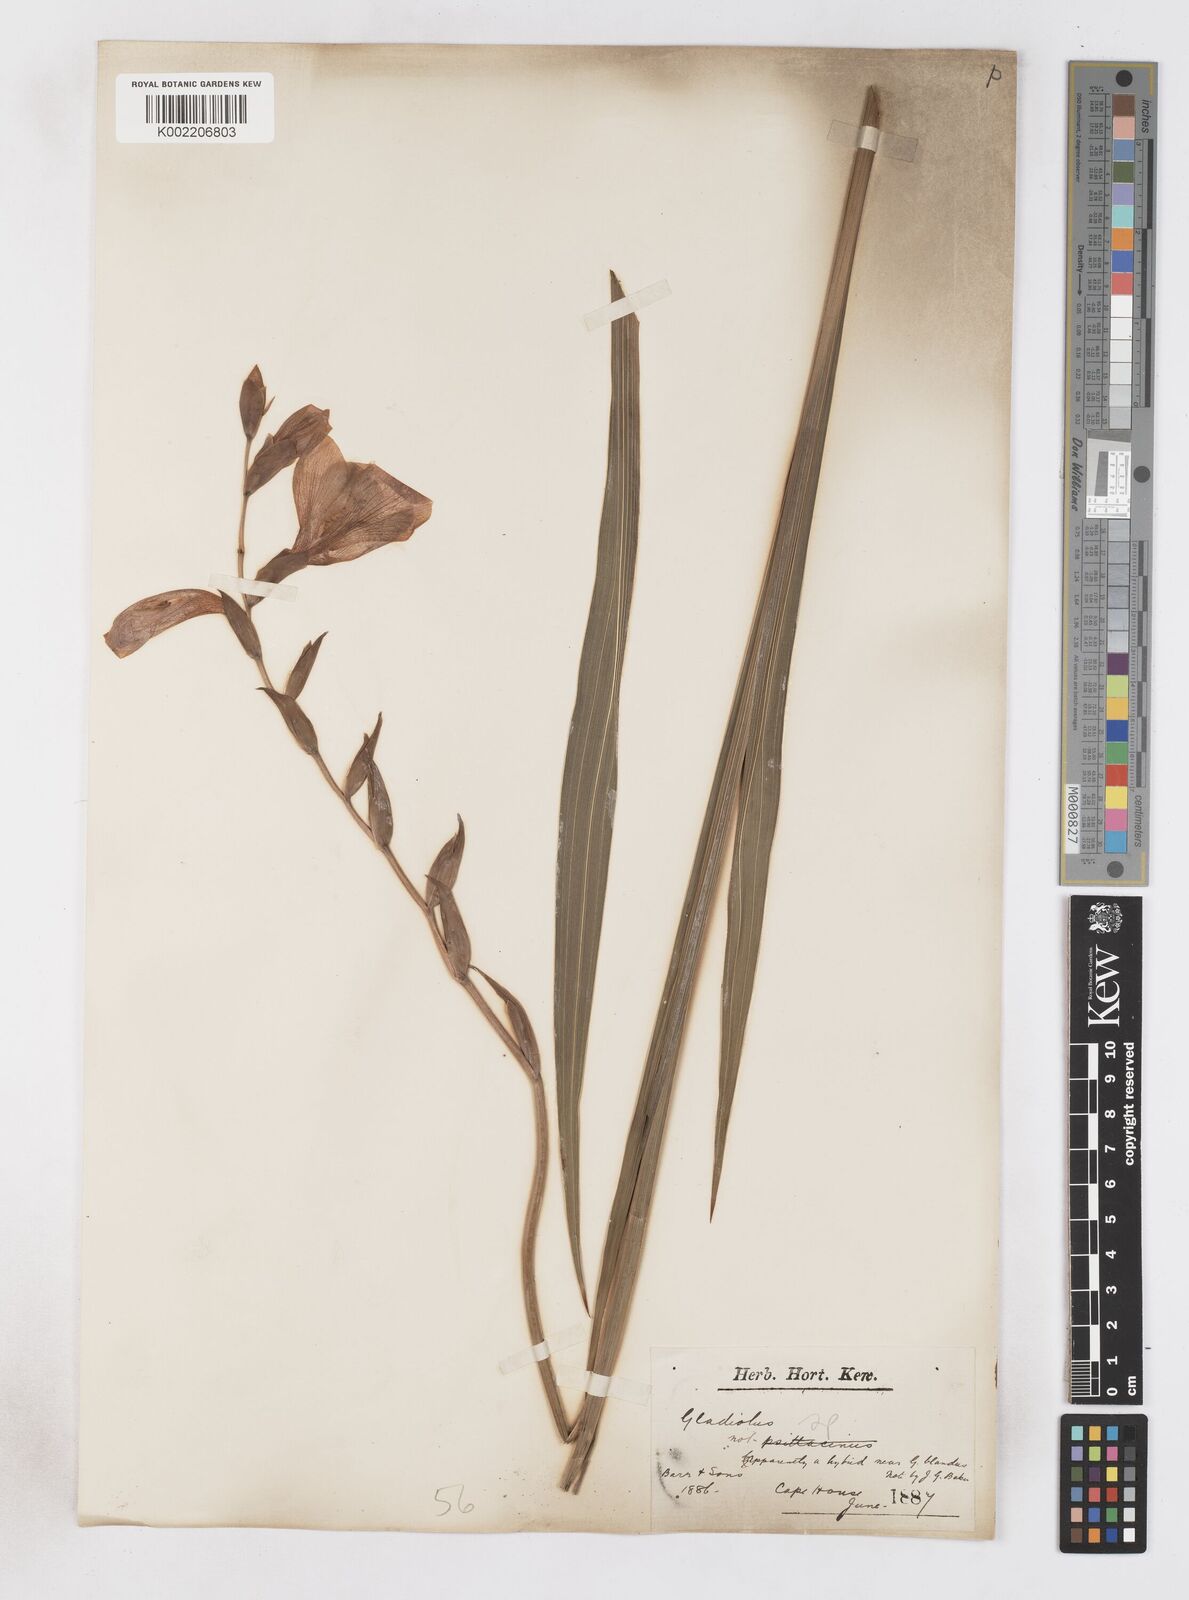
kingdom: Plantae
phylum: Tracheophyta
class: Liliopsida
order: Asparagales
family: Iridaceae
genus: Gladiolus
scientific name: Gladiolus
